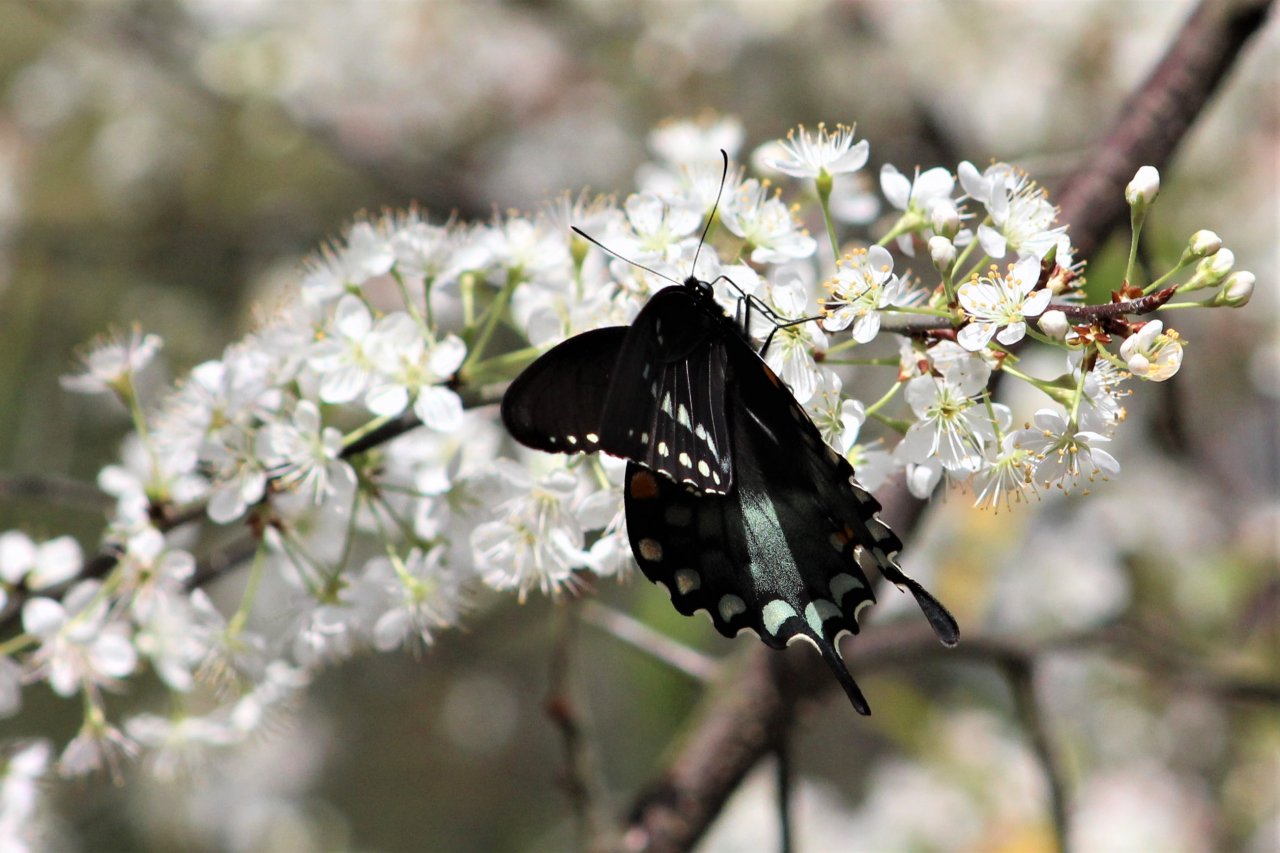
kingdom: Animalia
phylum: Arthropoda
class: Insecta
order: Lepidoptera
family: Papilionidae
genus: Pterourus
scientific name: Pterourus troilus
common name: Spicebush Swallowtail
